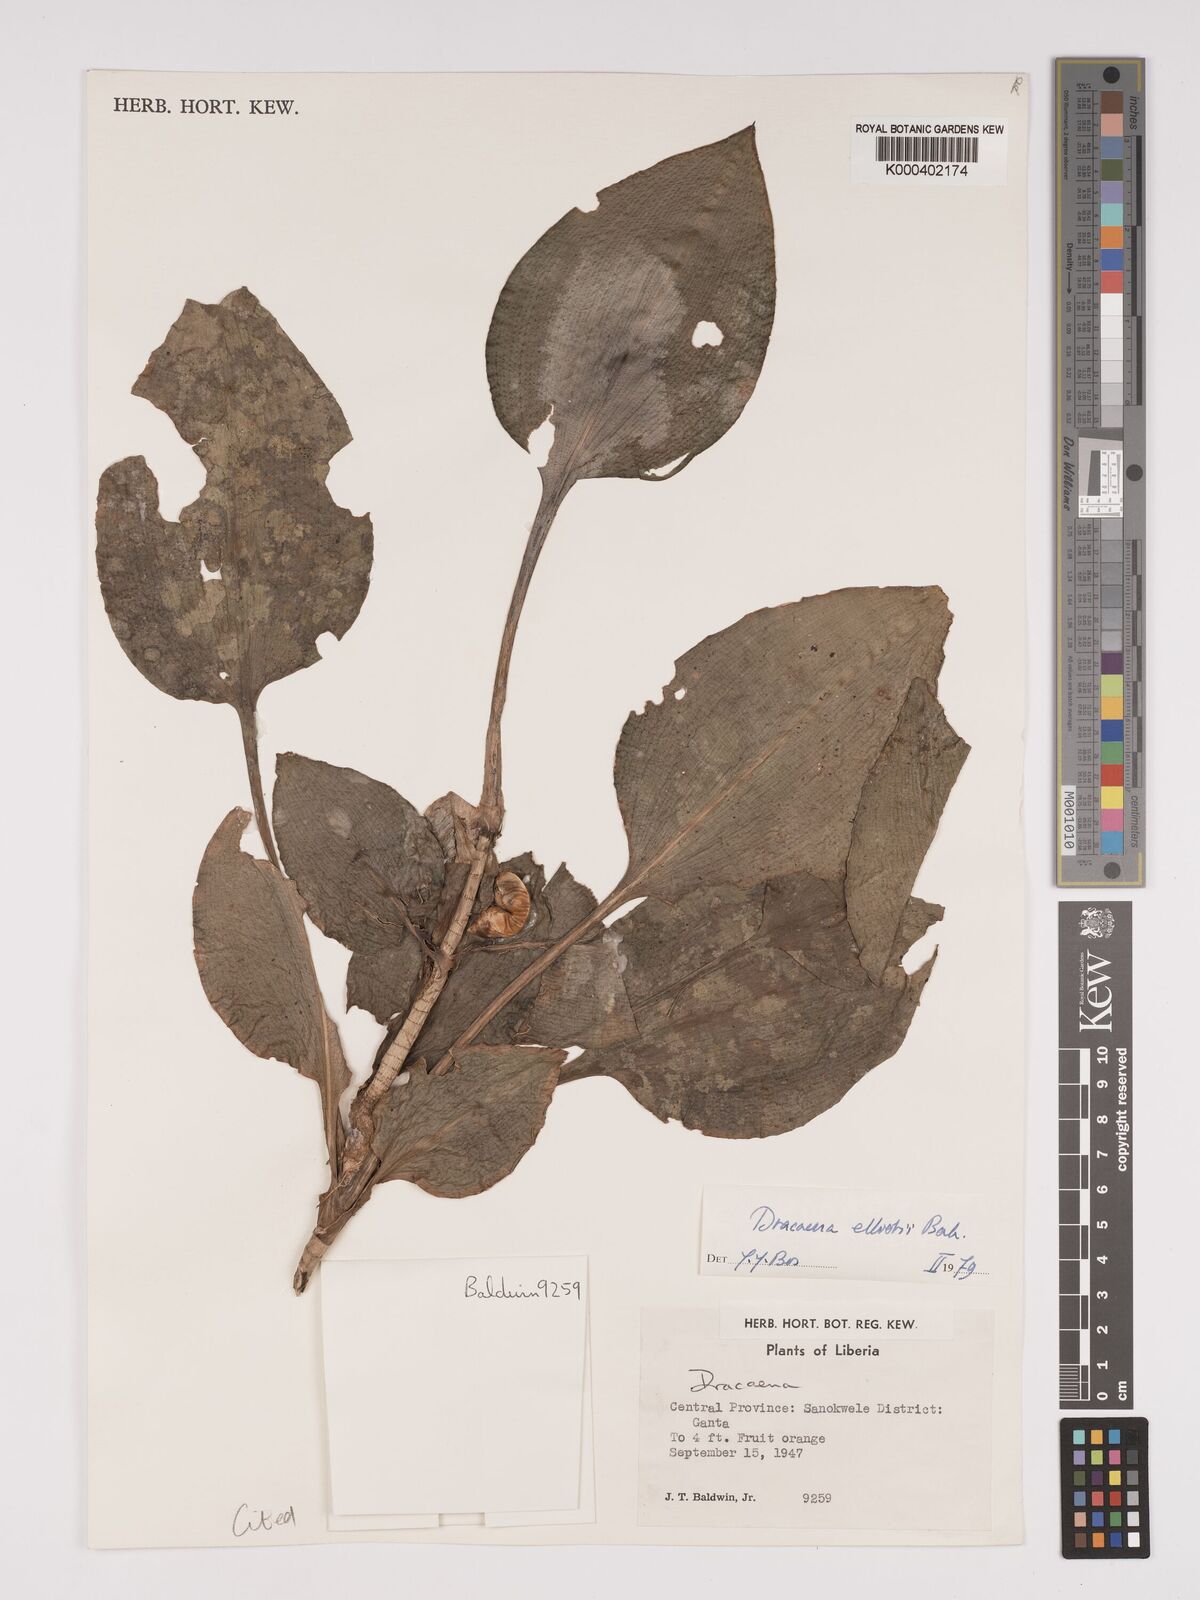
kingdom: Plantae
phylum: Tracheophyta
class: Liliopsida
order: Asparagales
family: Asparagaceae
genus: Dracaena
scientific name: Dracaena cristula
